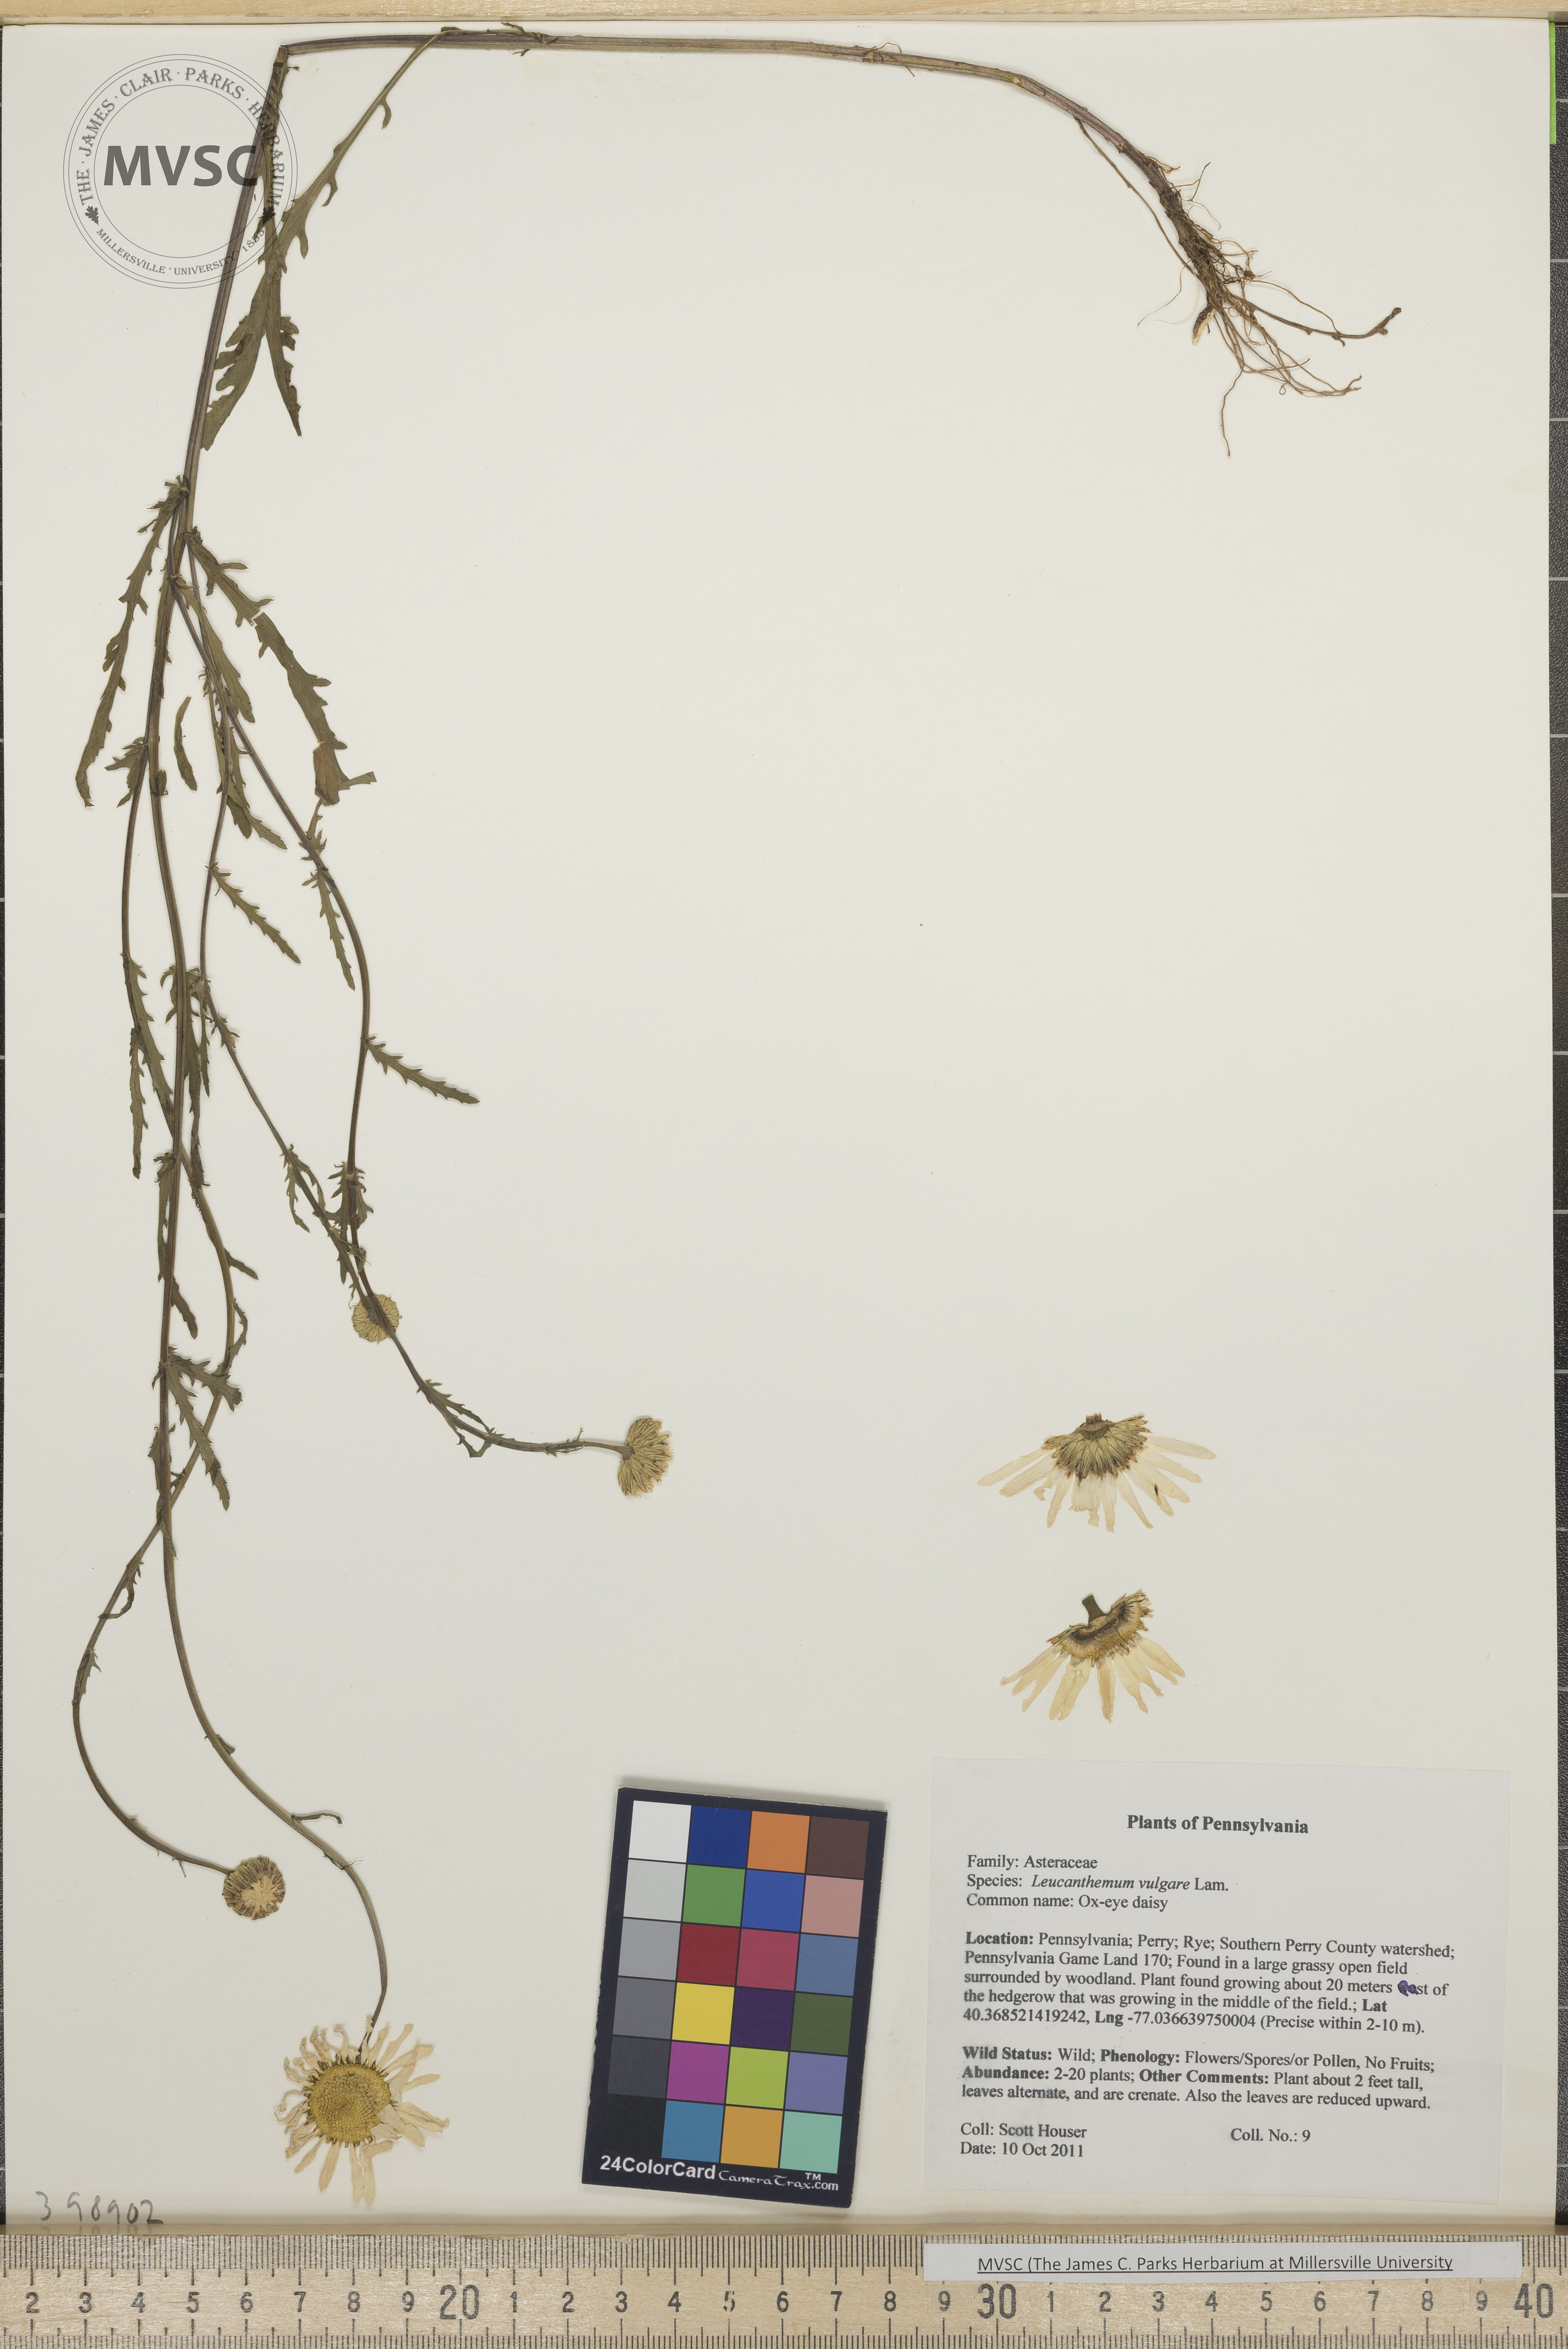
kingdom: Plantae
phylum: Tracheophyta
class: Magnoliopsida
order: Asterales
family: Asteraceae
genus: Leucanthemum
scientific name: Leucanthemum vulgare
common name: Ox-eye daisy
